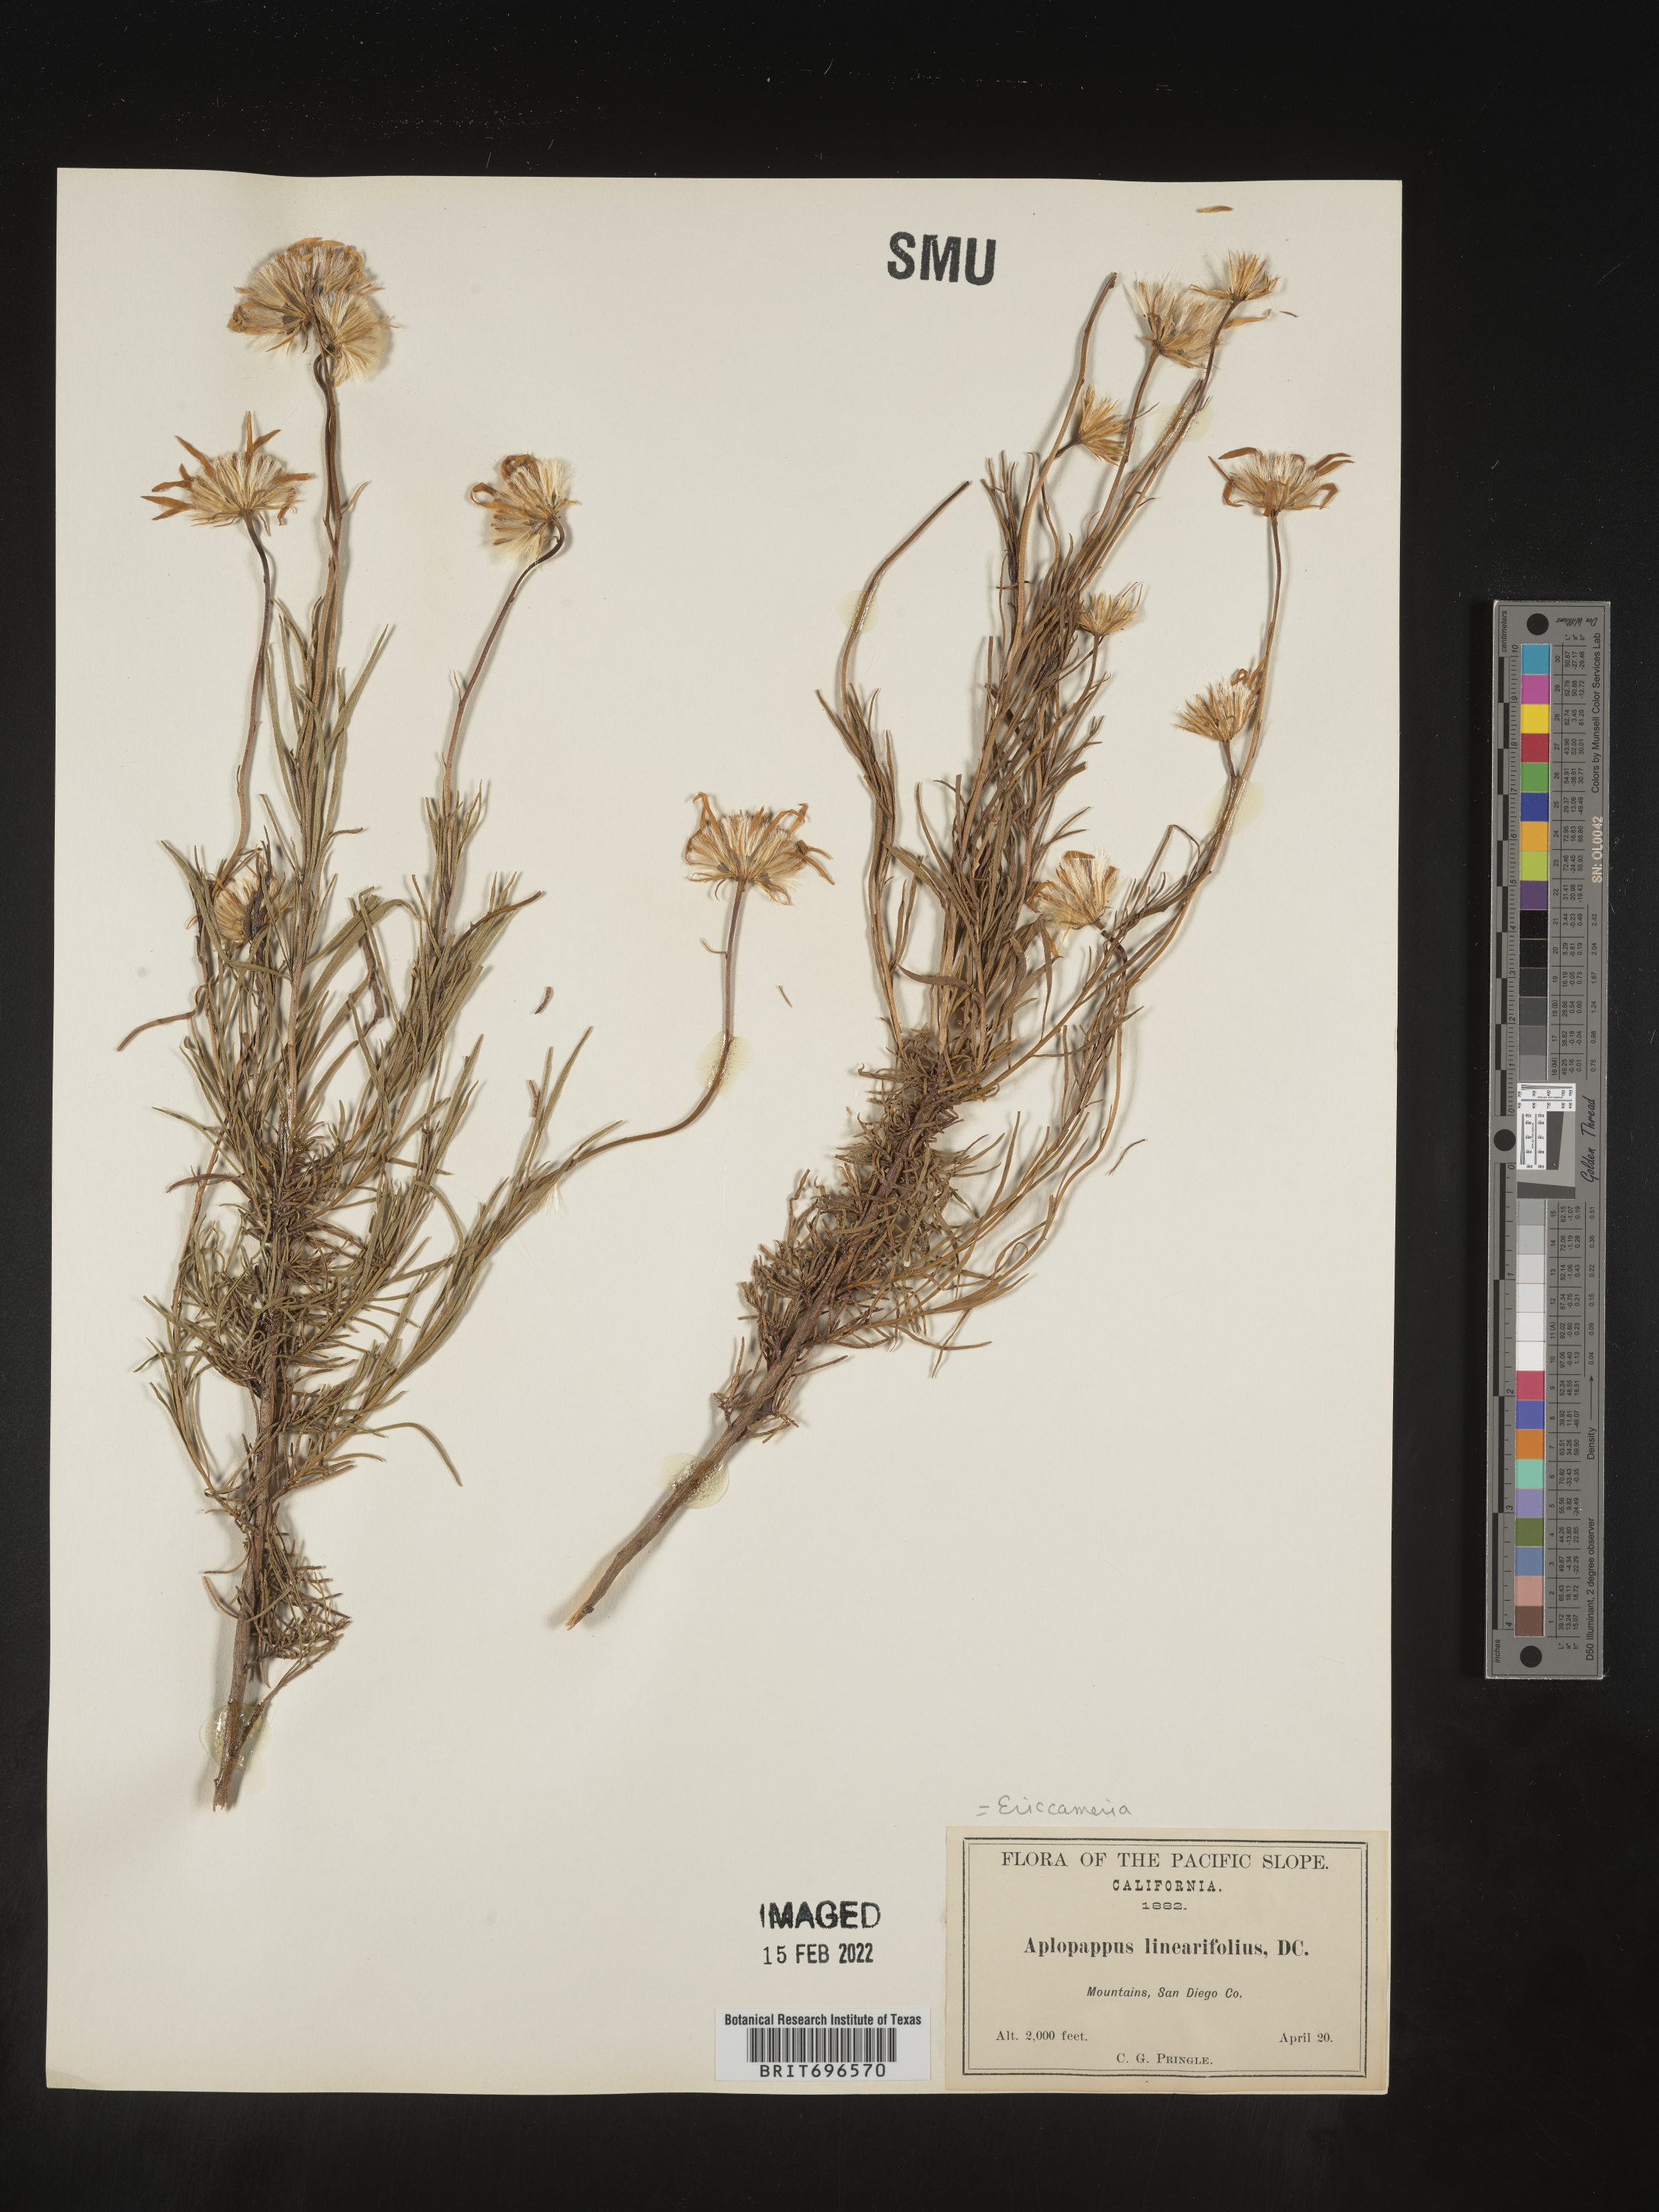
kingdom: Plantae
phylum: Tracheophyta
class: Magnoliopsida
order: Asterales
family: Asteraceae
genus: Ericameria
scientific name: Ericameria linearifolia
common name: Interior goldenbush
